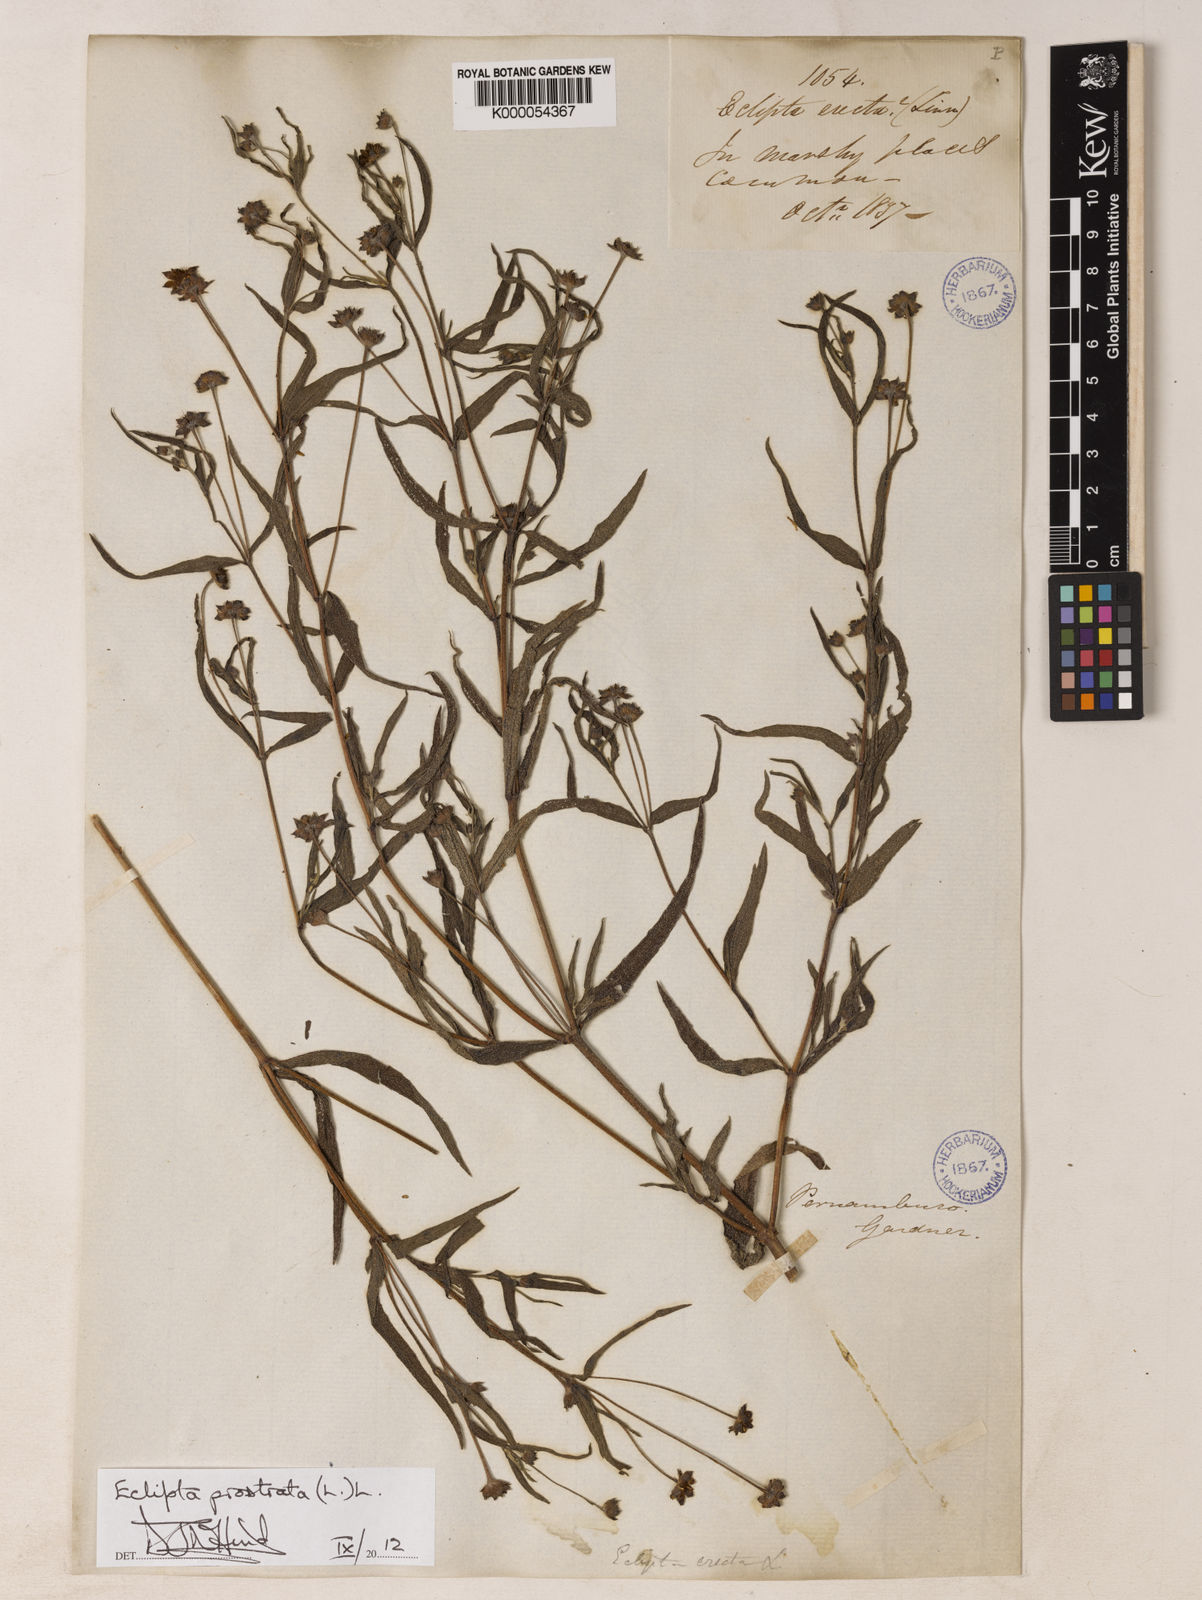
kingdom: Plantae
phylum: Tracheophyta
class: Magnoliopsida
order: Asterales
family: Asteraceae
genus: Eclipta
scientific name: Eclipta prostrata
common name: False daisy
